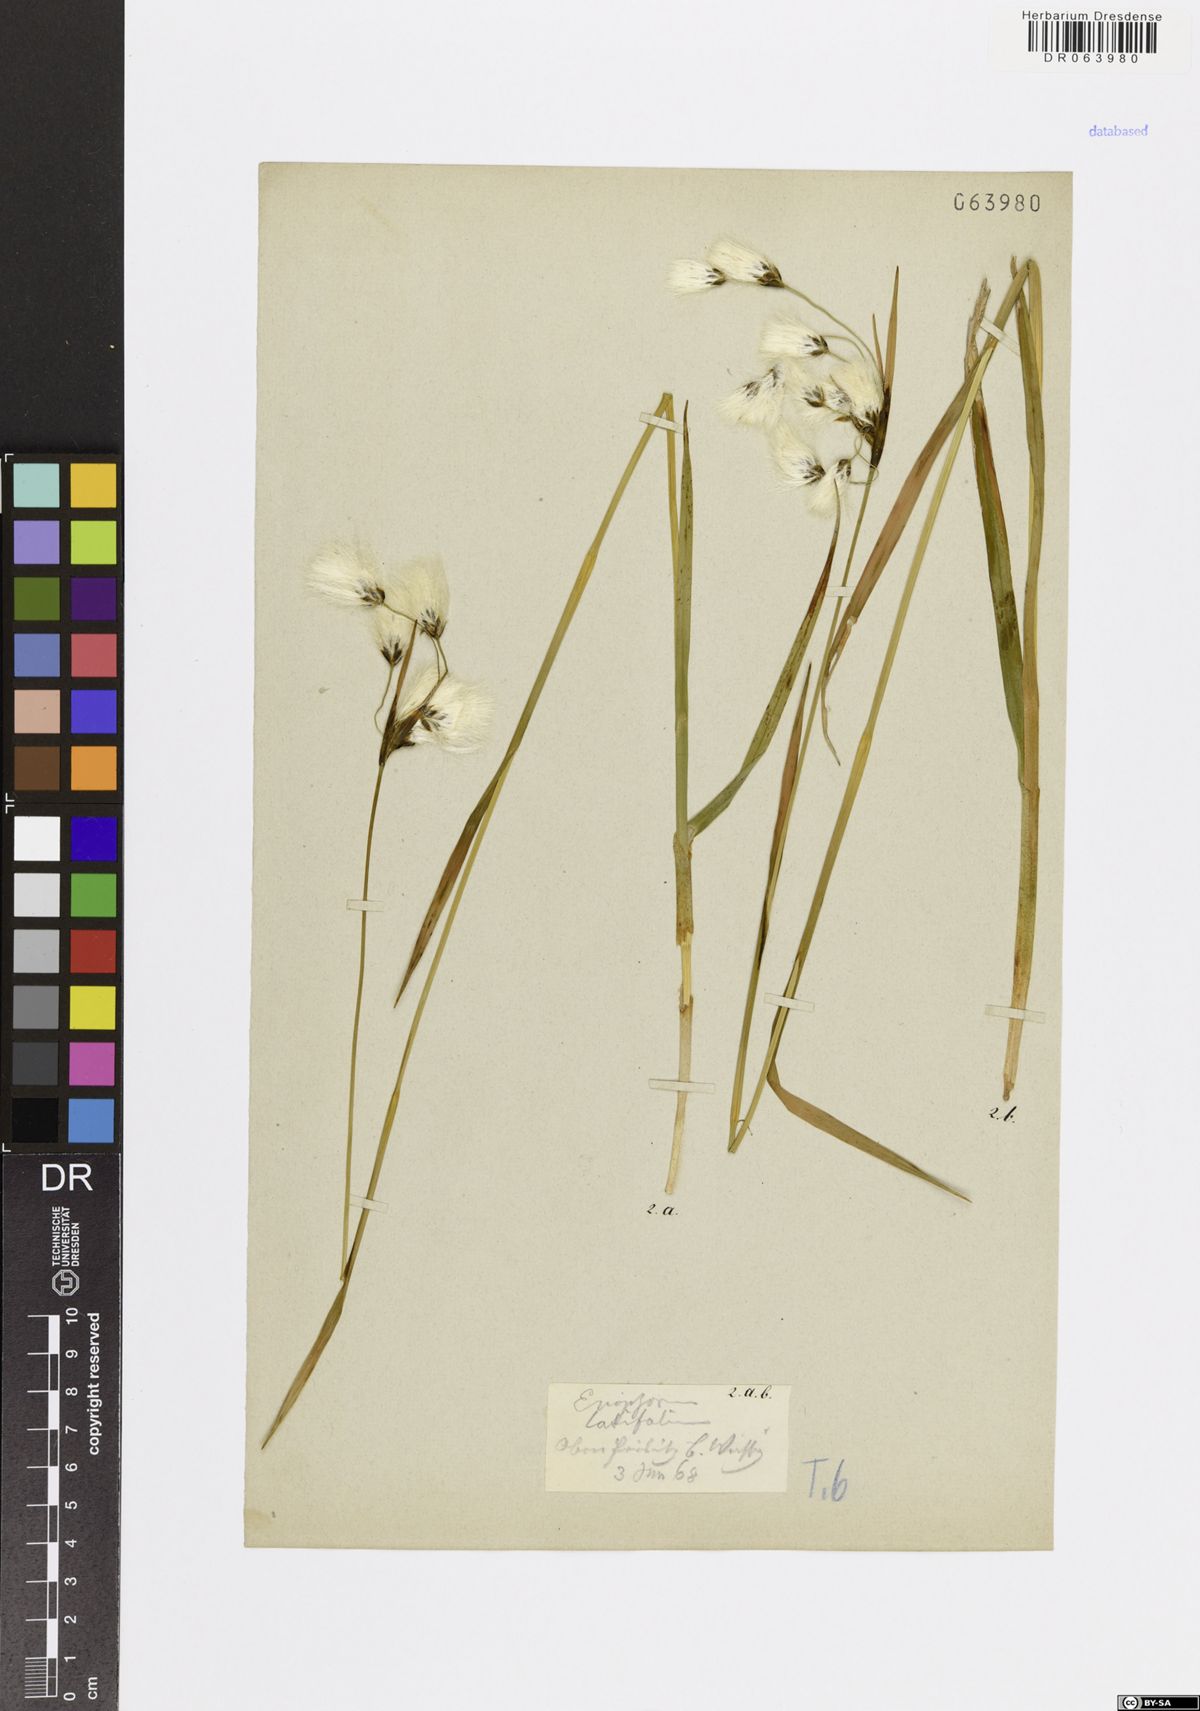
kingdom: Plantae
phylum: Tracheophyta
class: Liliopsida
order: Poales
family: Cyperaceae
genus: Eriophorum
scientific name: Eriophorum latifolium
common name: Broad-leaved cottongrass
